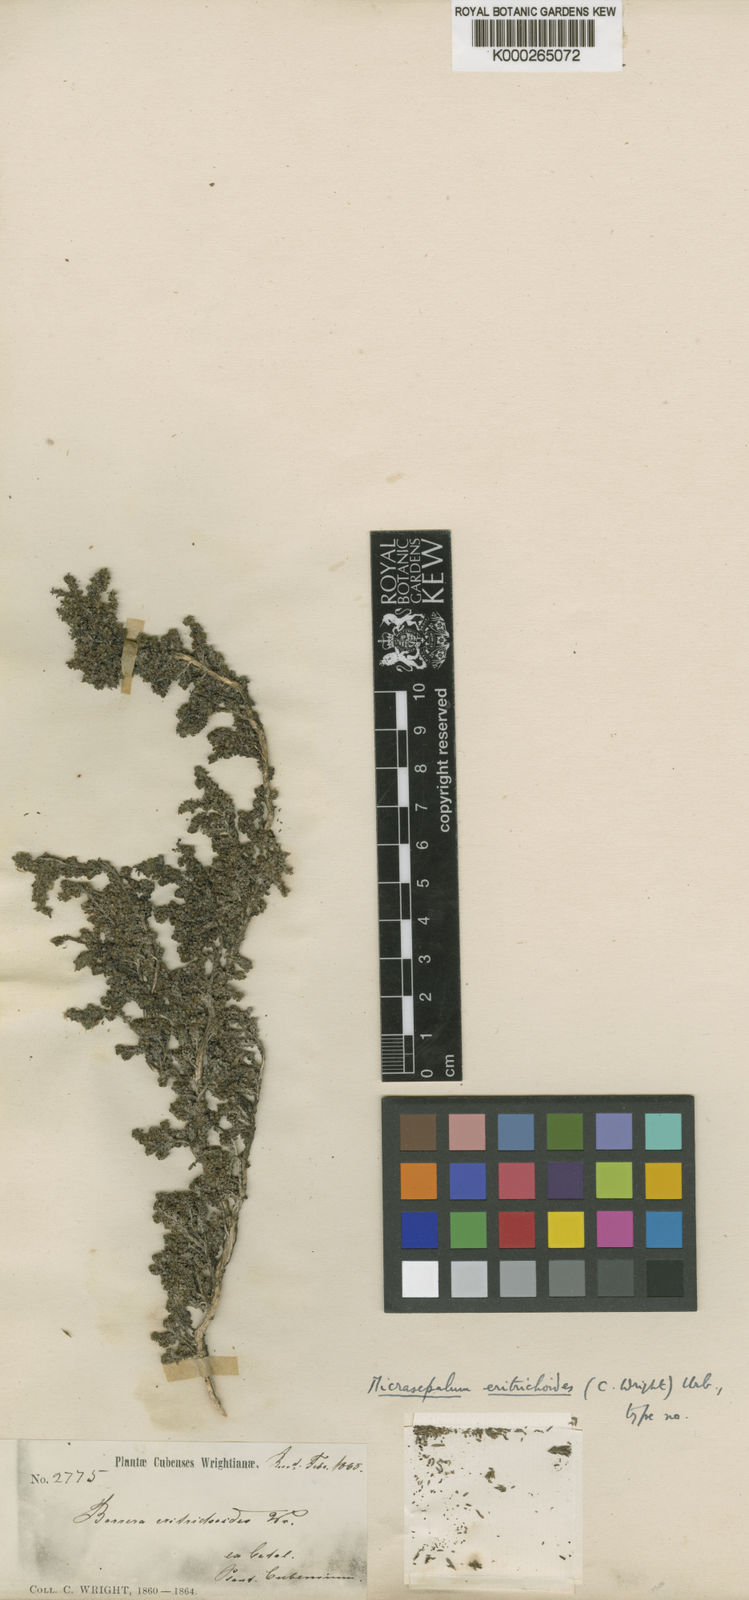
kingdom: Plantae
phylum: Tracheophyta
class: Magnoliopsida
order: Gentianales
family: Rubiaceae
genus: Micrasepalum
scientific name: Micrasepalum eritrichoides
